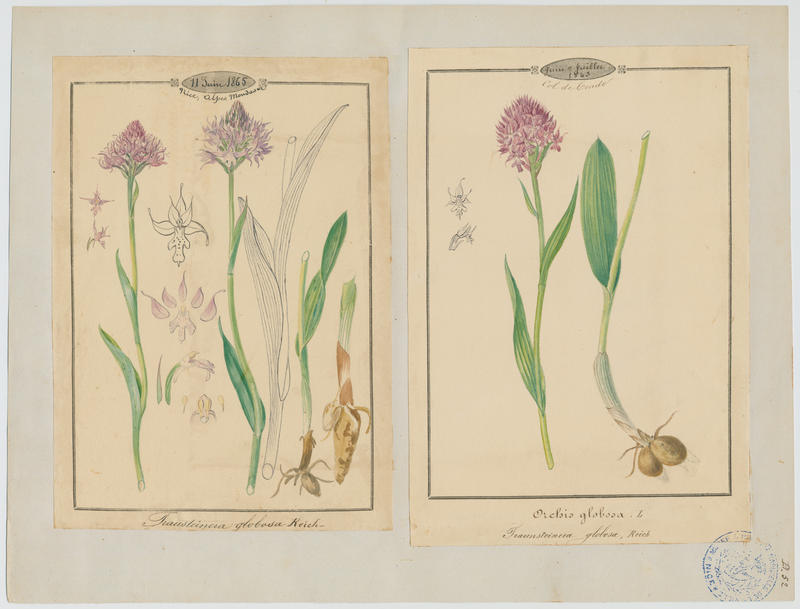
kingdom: Plantae
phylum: Tracheophyta
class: Liliopsida
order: Asparagales
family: Orchidaceae
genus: Traunsteinera
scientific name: Traunsteinera globosa
